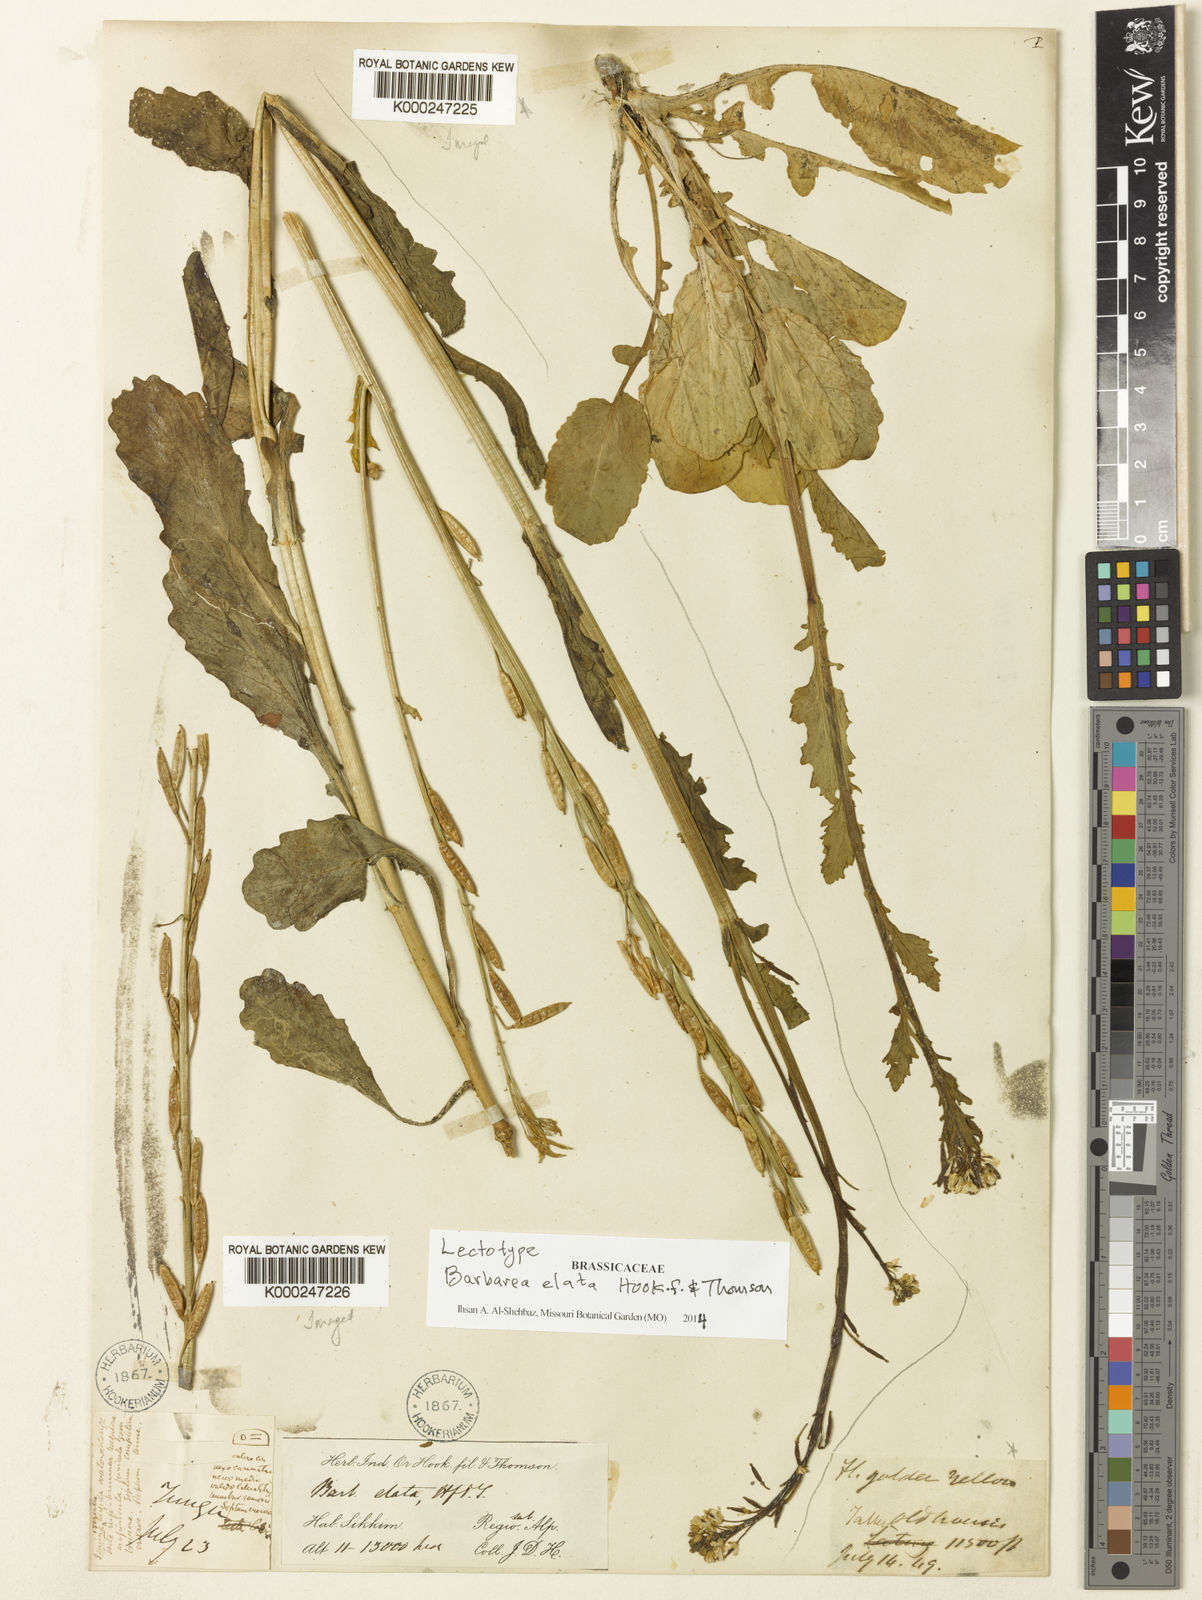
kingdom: Plantae
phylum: Tracheophyta
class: Magnoliopsida
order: Brassicales
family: Brassicaceae
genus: Rorippa
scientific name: Rorippa elata
